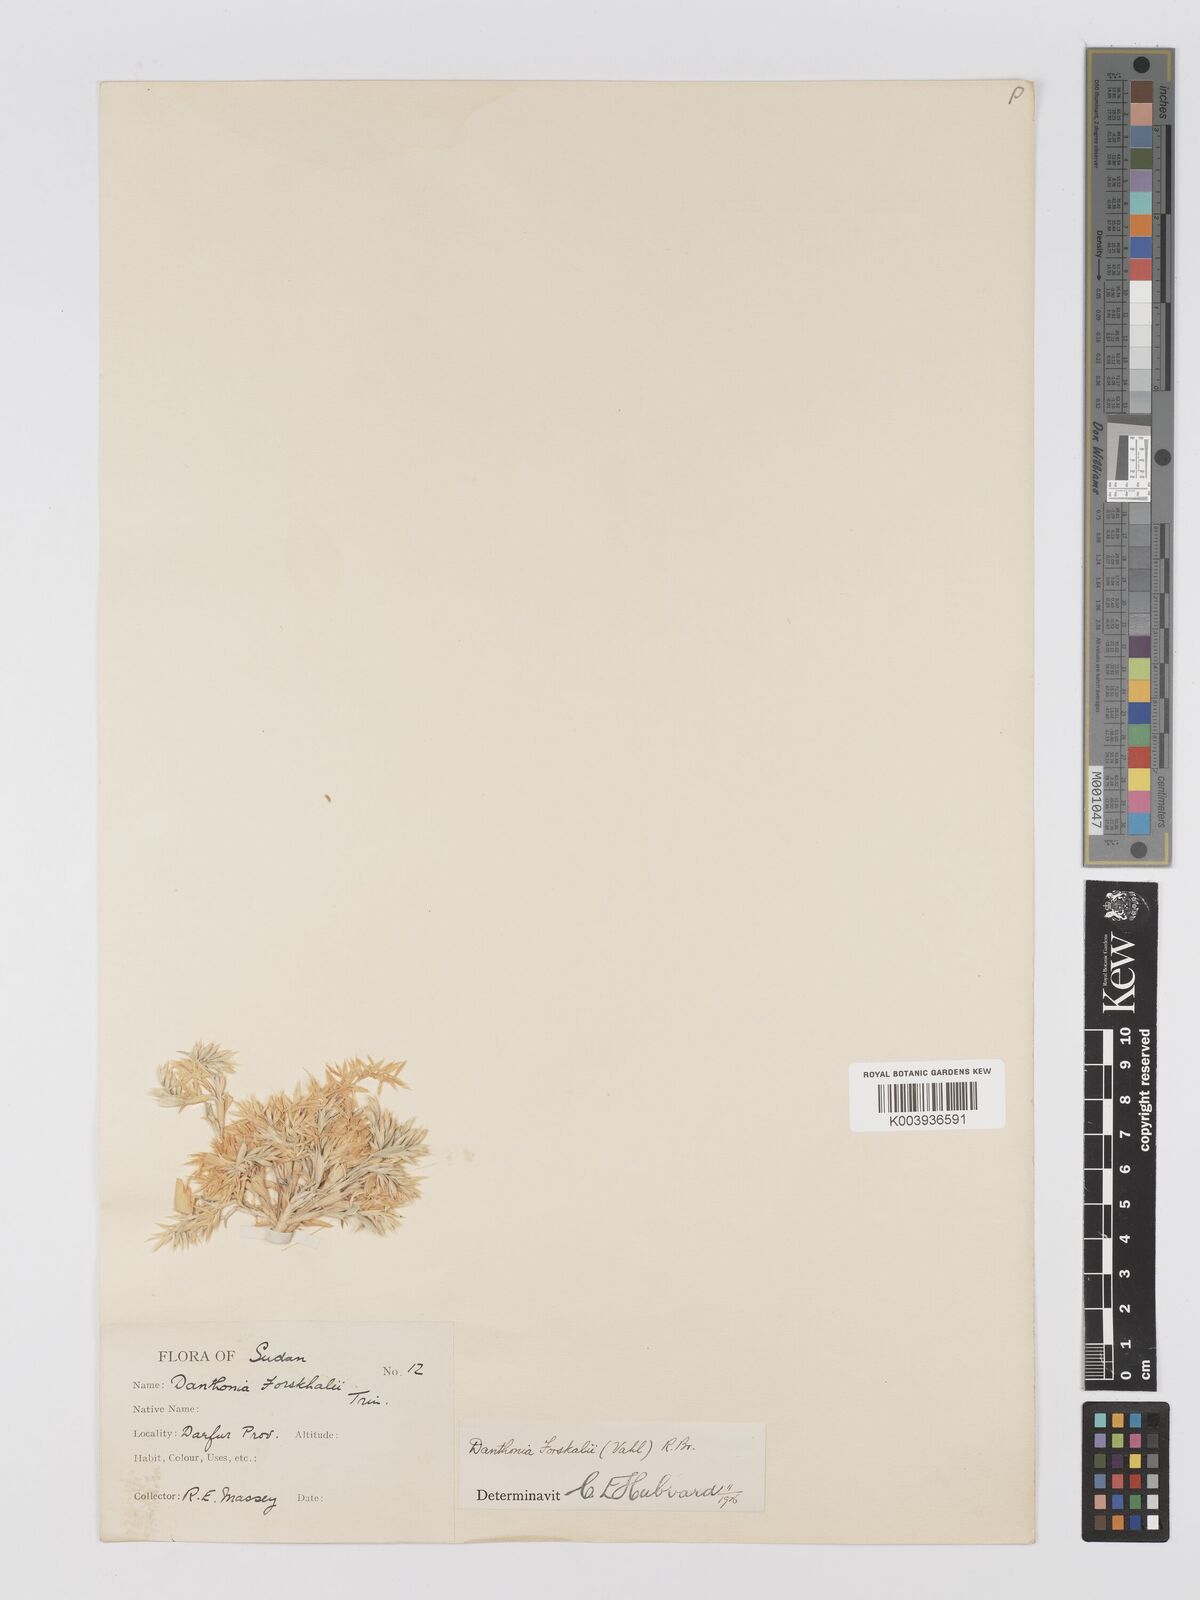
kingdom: Plantae
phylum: Tracheophyta
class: Liliopsida
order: Poales
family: Poaceae
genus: Centropodia
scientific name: Centropodia forskaolii
